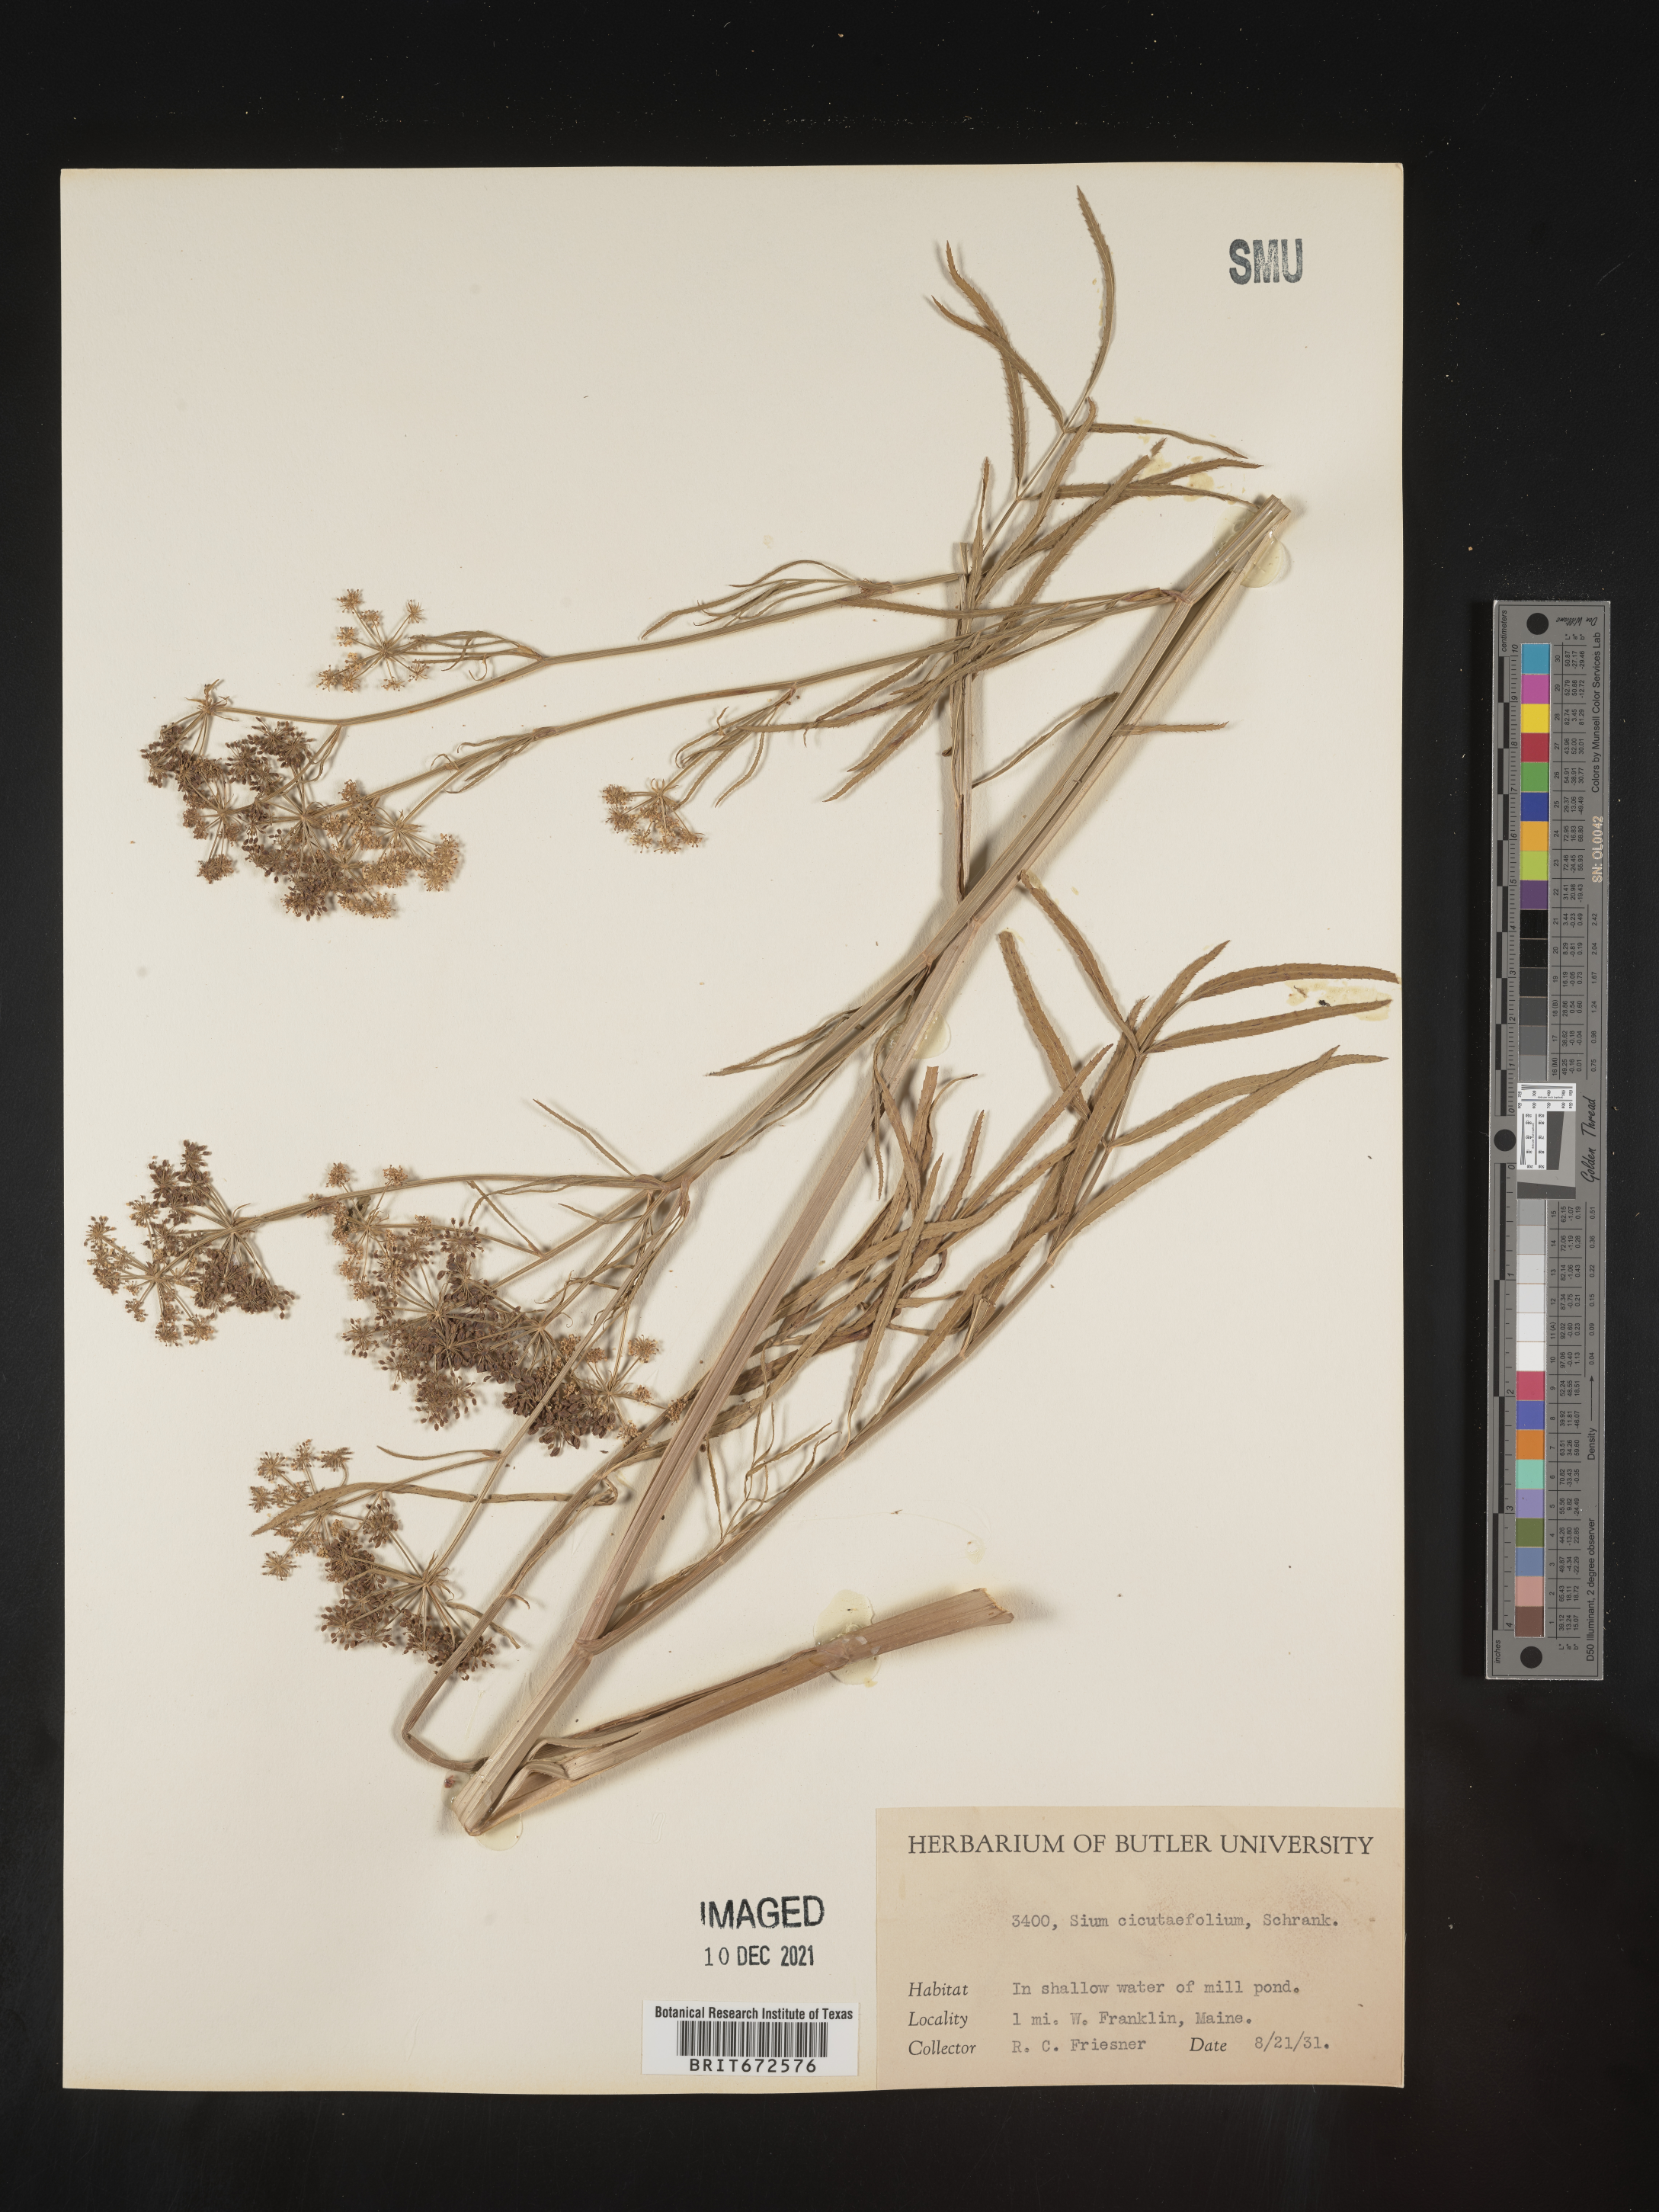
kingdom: Plantae
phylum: Tracheophyta
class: Magnoliopsida
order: Apiales
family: Apiaceae
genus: Sium
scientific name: Sium suave
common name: Hemlock water-parsnip
